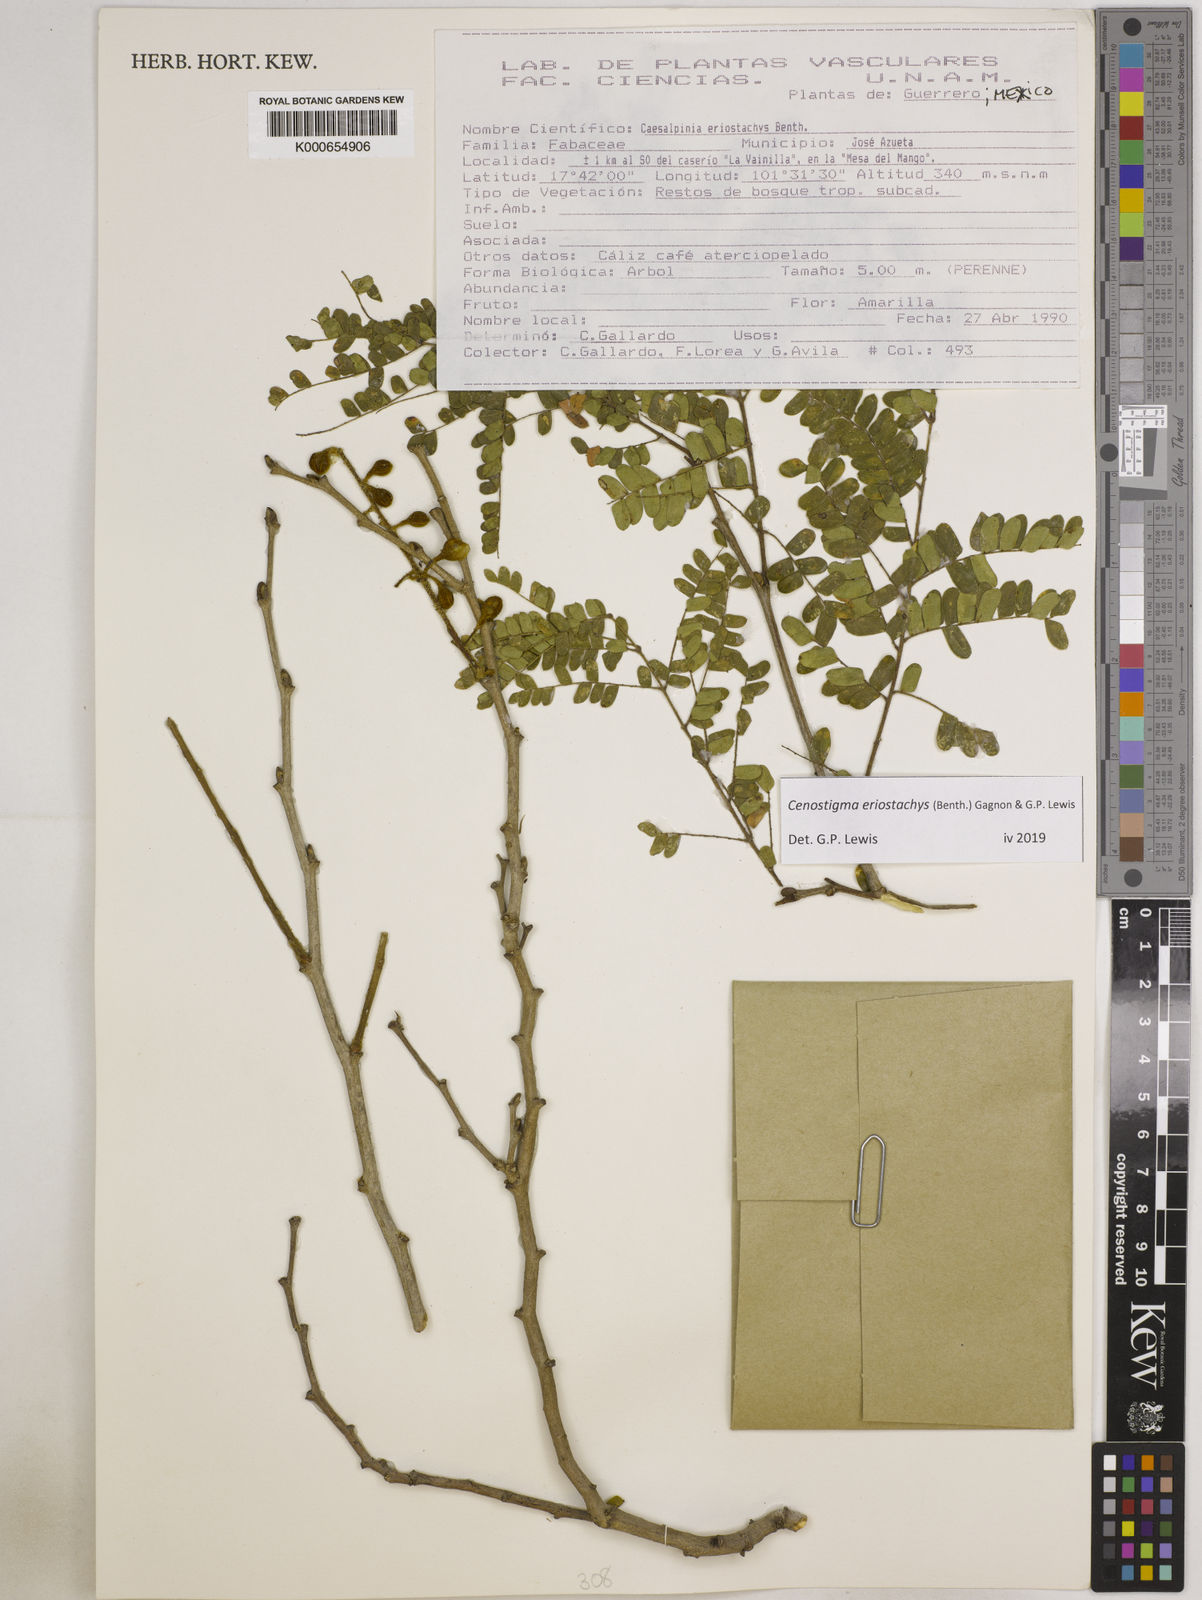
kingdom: Plantae
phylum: Tracheophyta
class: Magnoliopsida
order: Fabales
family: Fabaceae
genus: Cenostigma
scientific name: Cenostigma eriostachys
